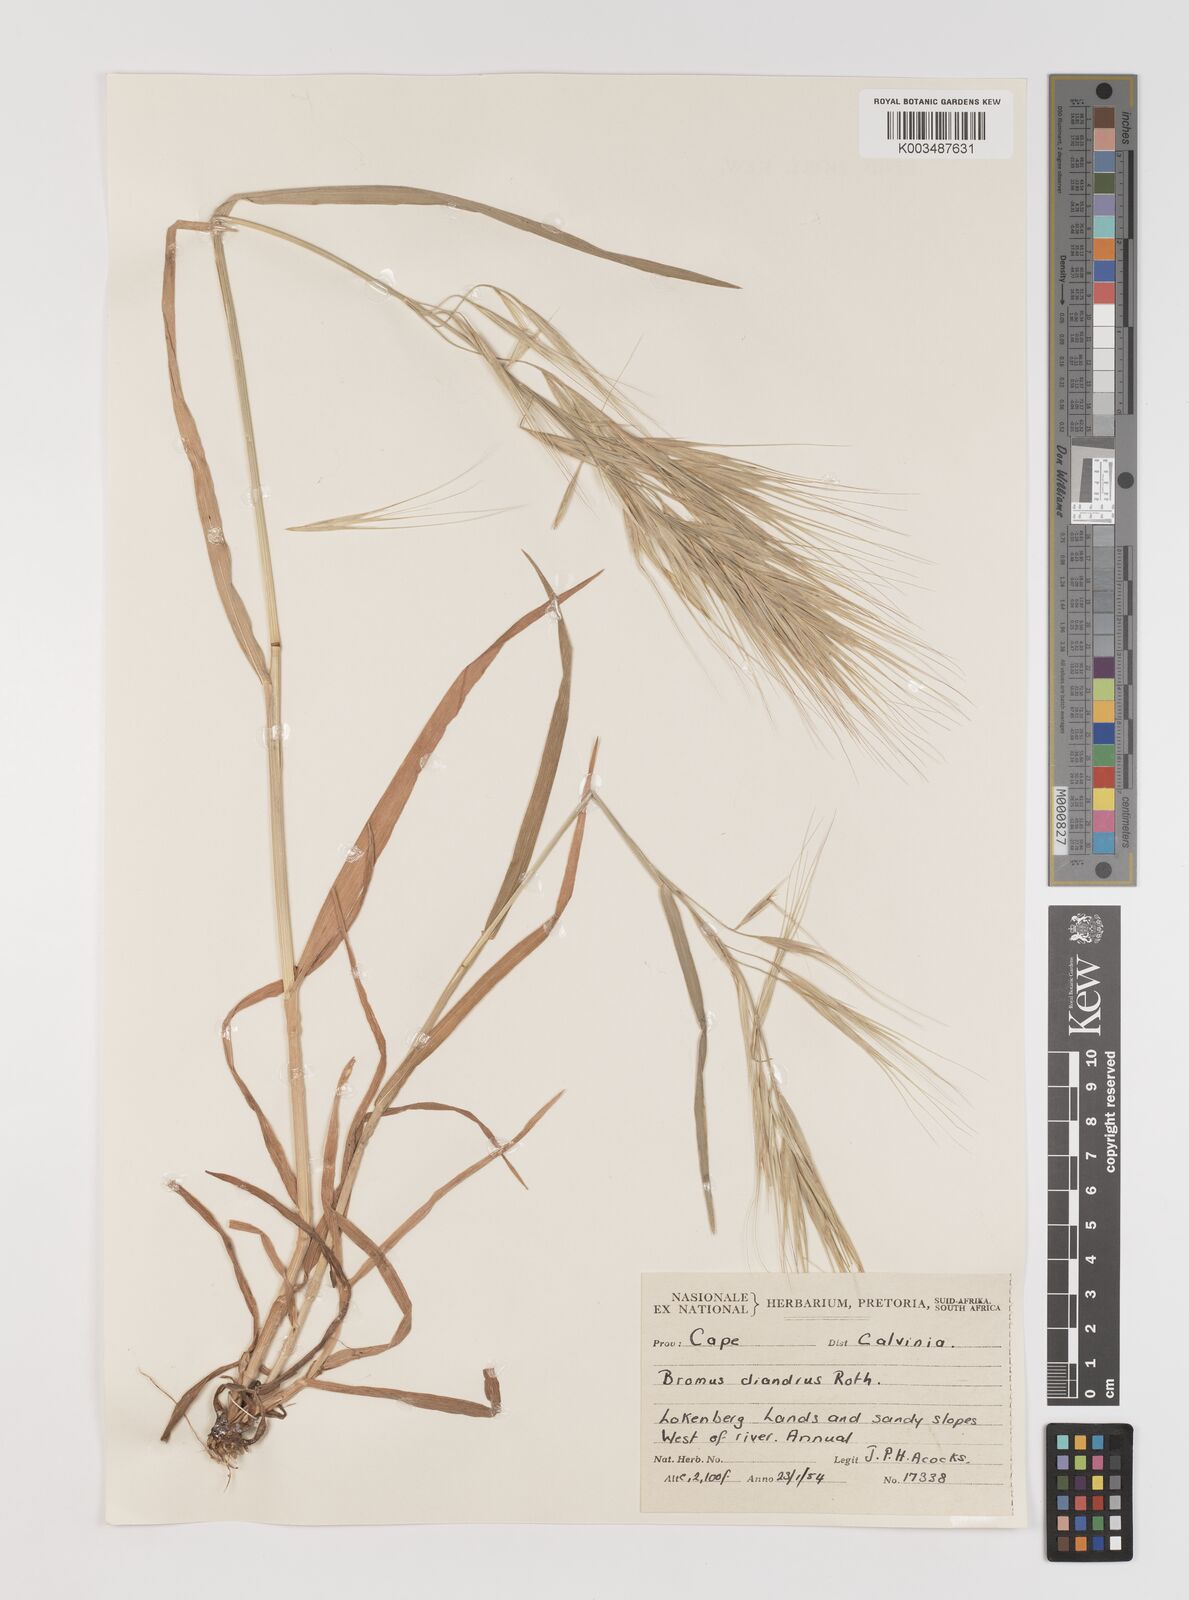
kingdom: Plantae
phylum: Tracheophyta
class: Liliopsida
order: Poales
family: Poaceae
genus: Bromus
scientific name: Bromus diandrus
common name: Ripgut brome
